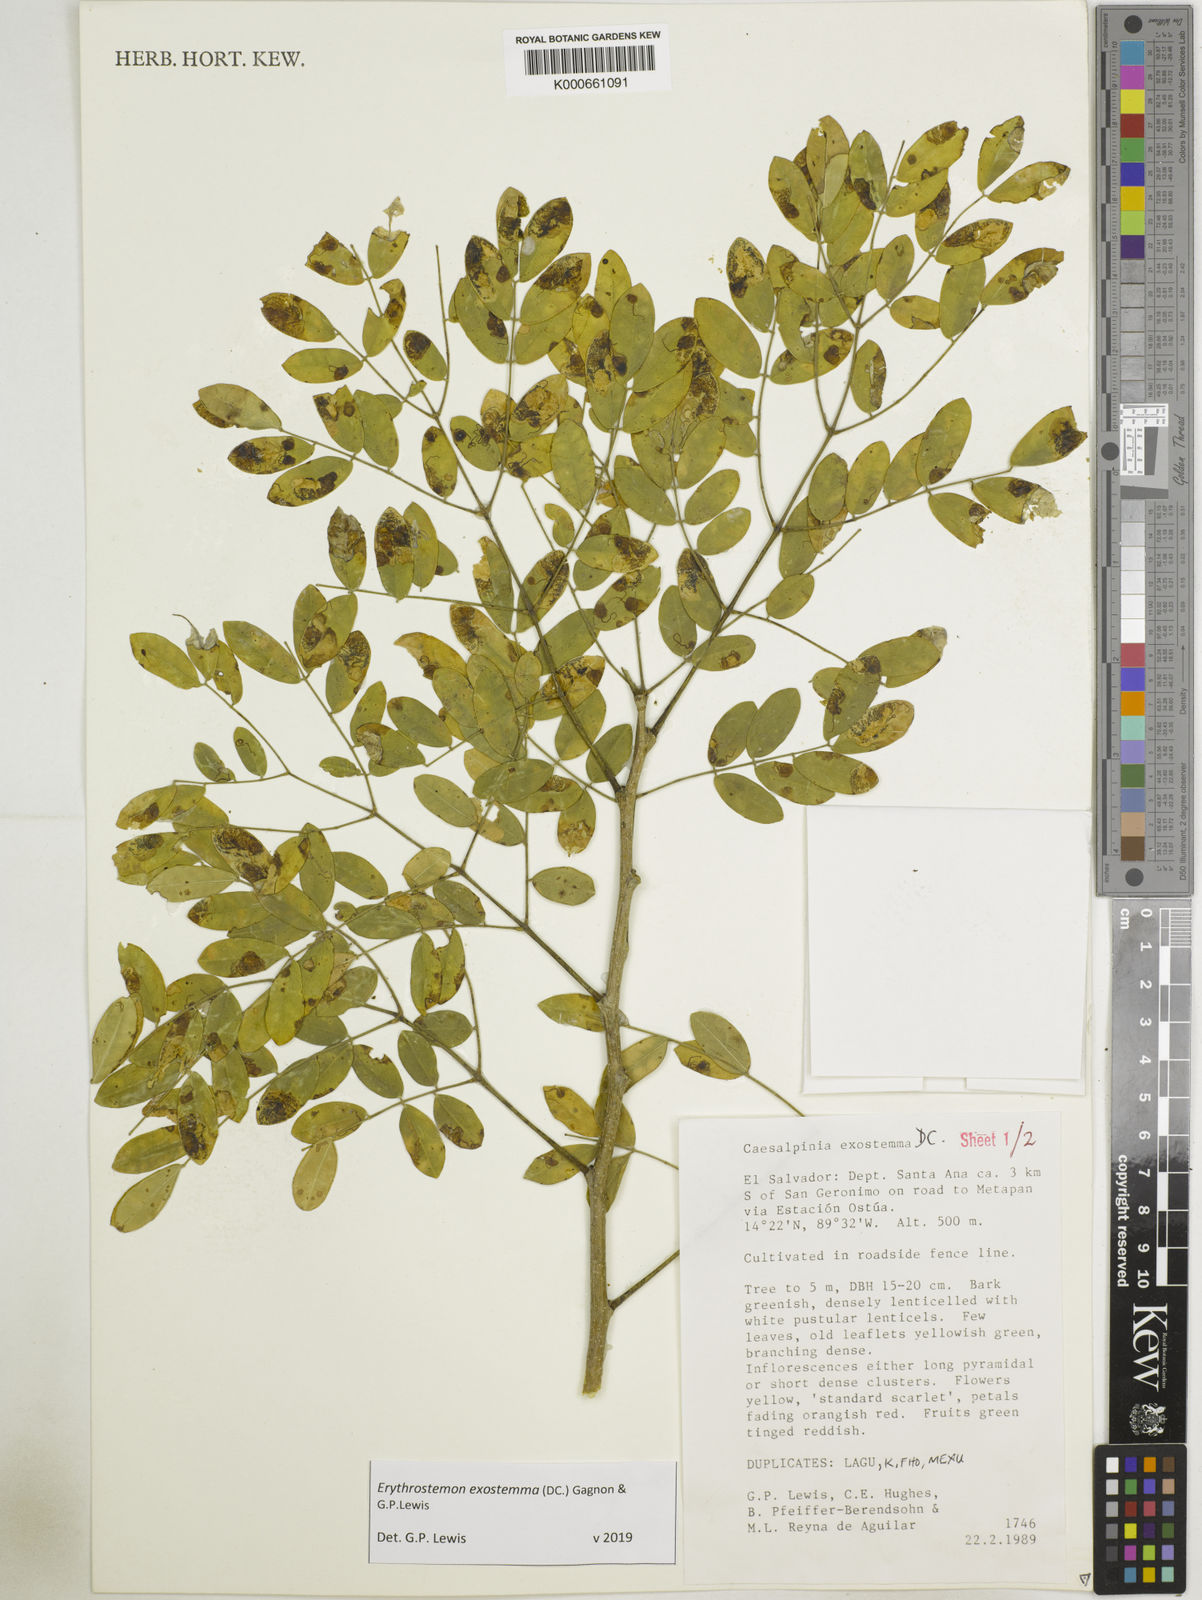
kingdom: Plantae
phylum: Tracheophyta
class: Magnoliopsida
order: Fabales
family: Fabaceae
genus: Erythrostemon
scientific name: Erythrostemon exostemma
